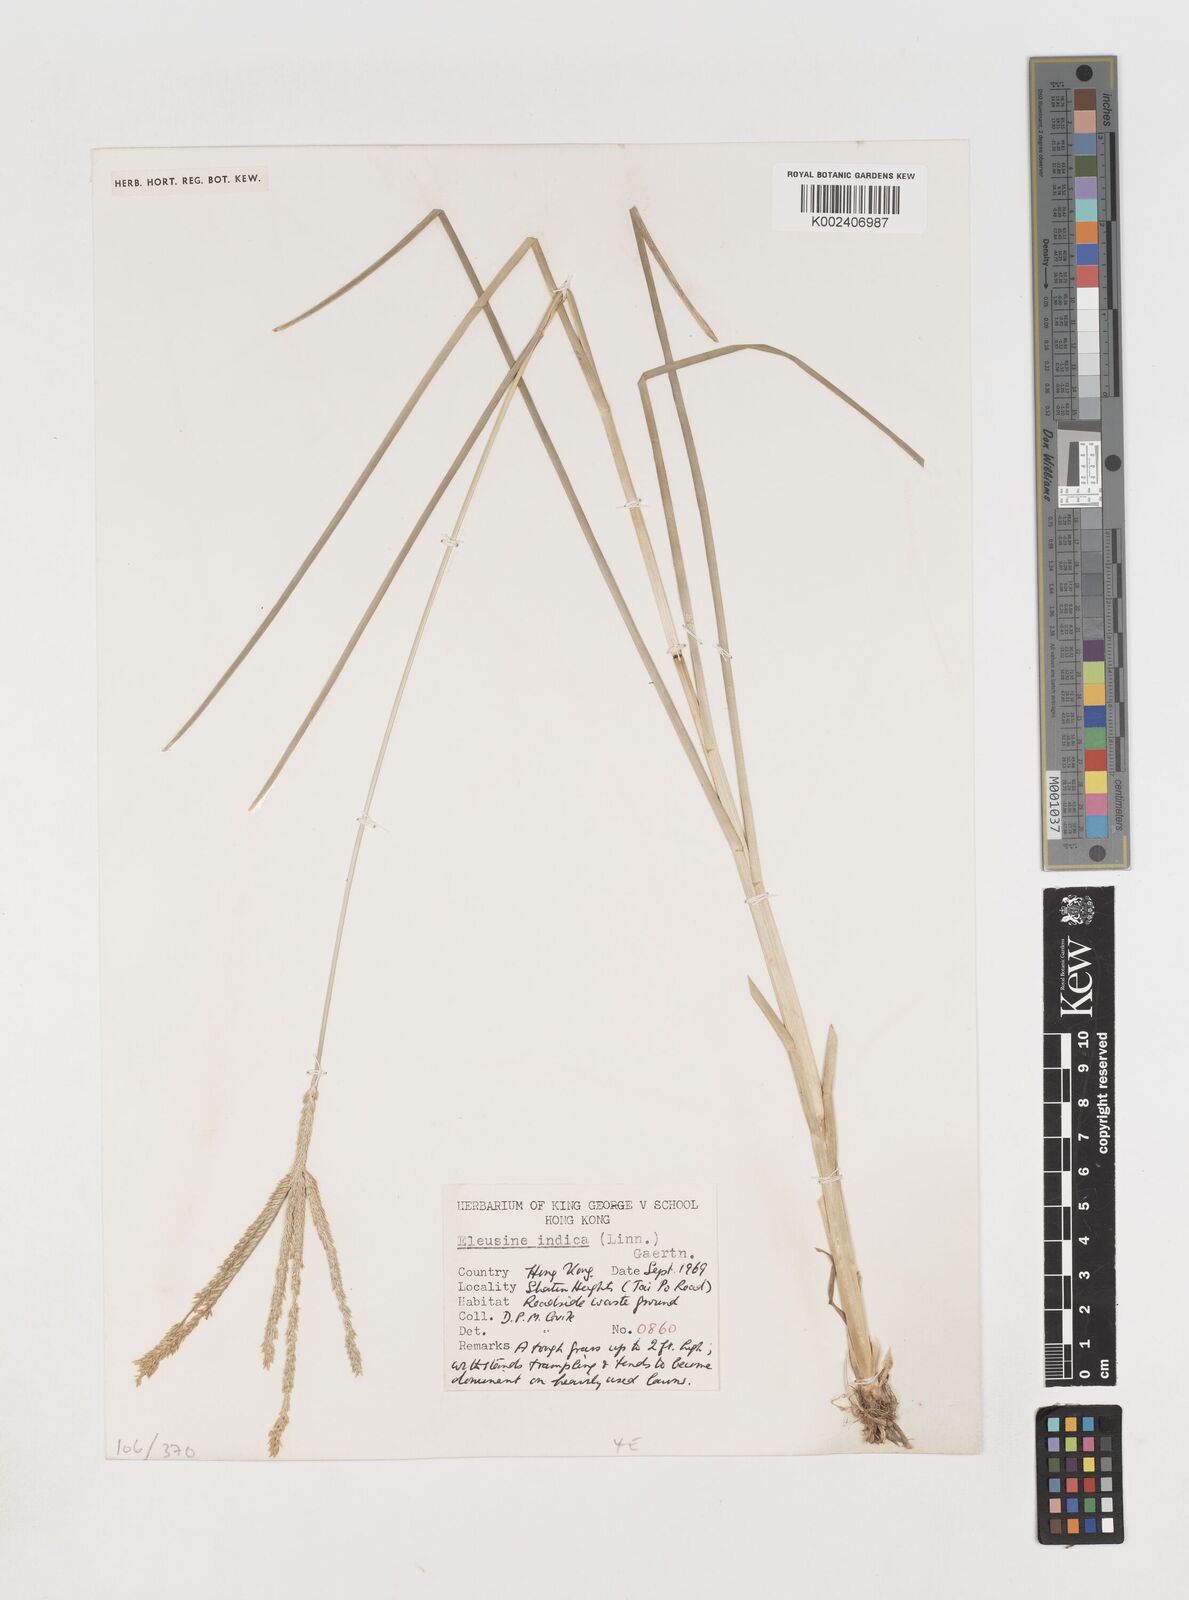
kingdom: Plantae
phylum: Tracheophyta
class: Liliopsida
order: Poales
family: Poaceae
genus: Eleusine
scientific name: Eleusine indica
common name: Yard-grass
